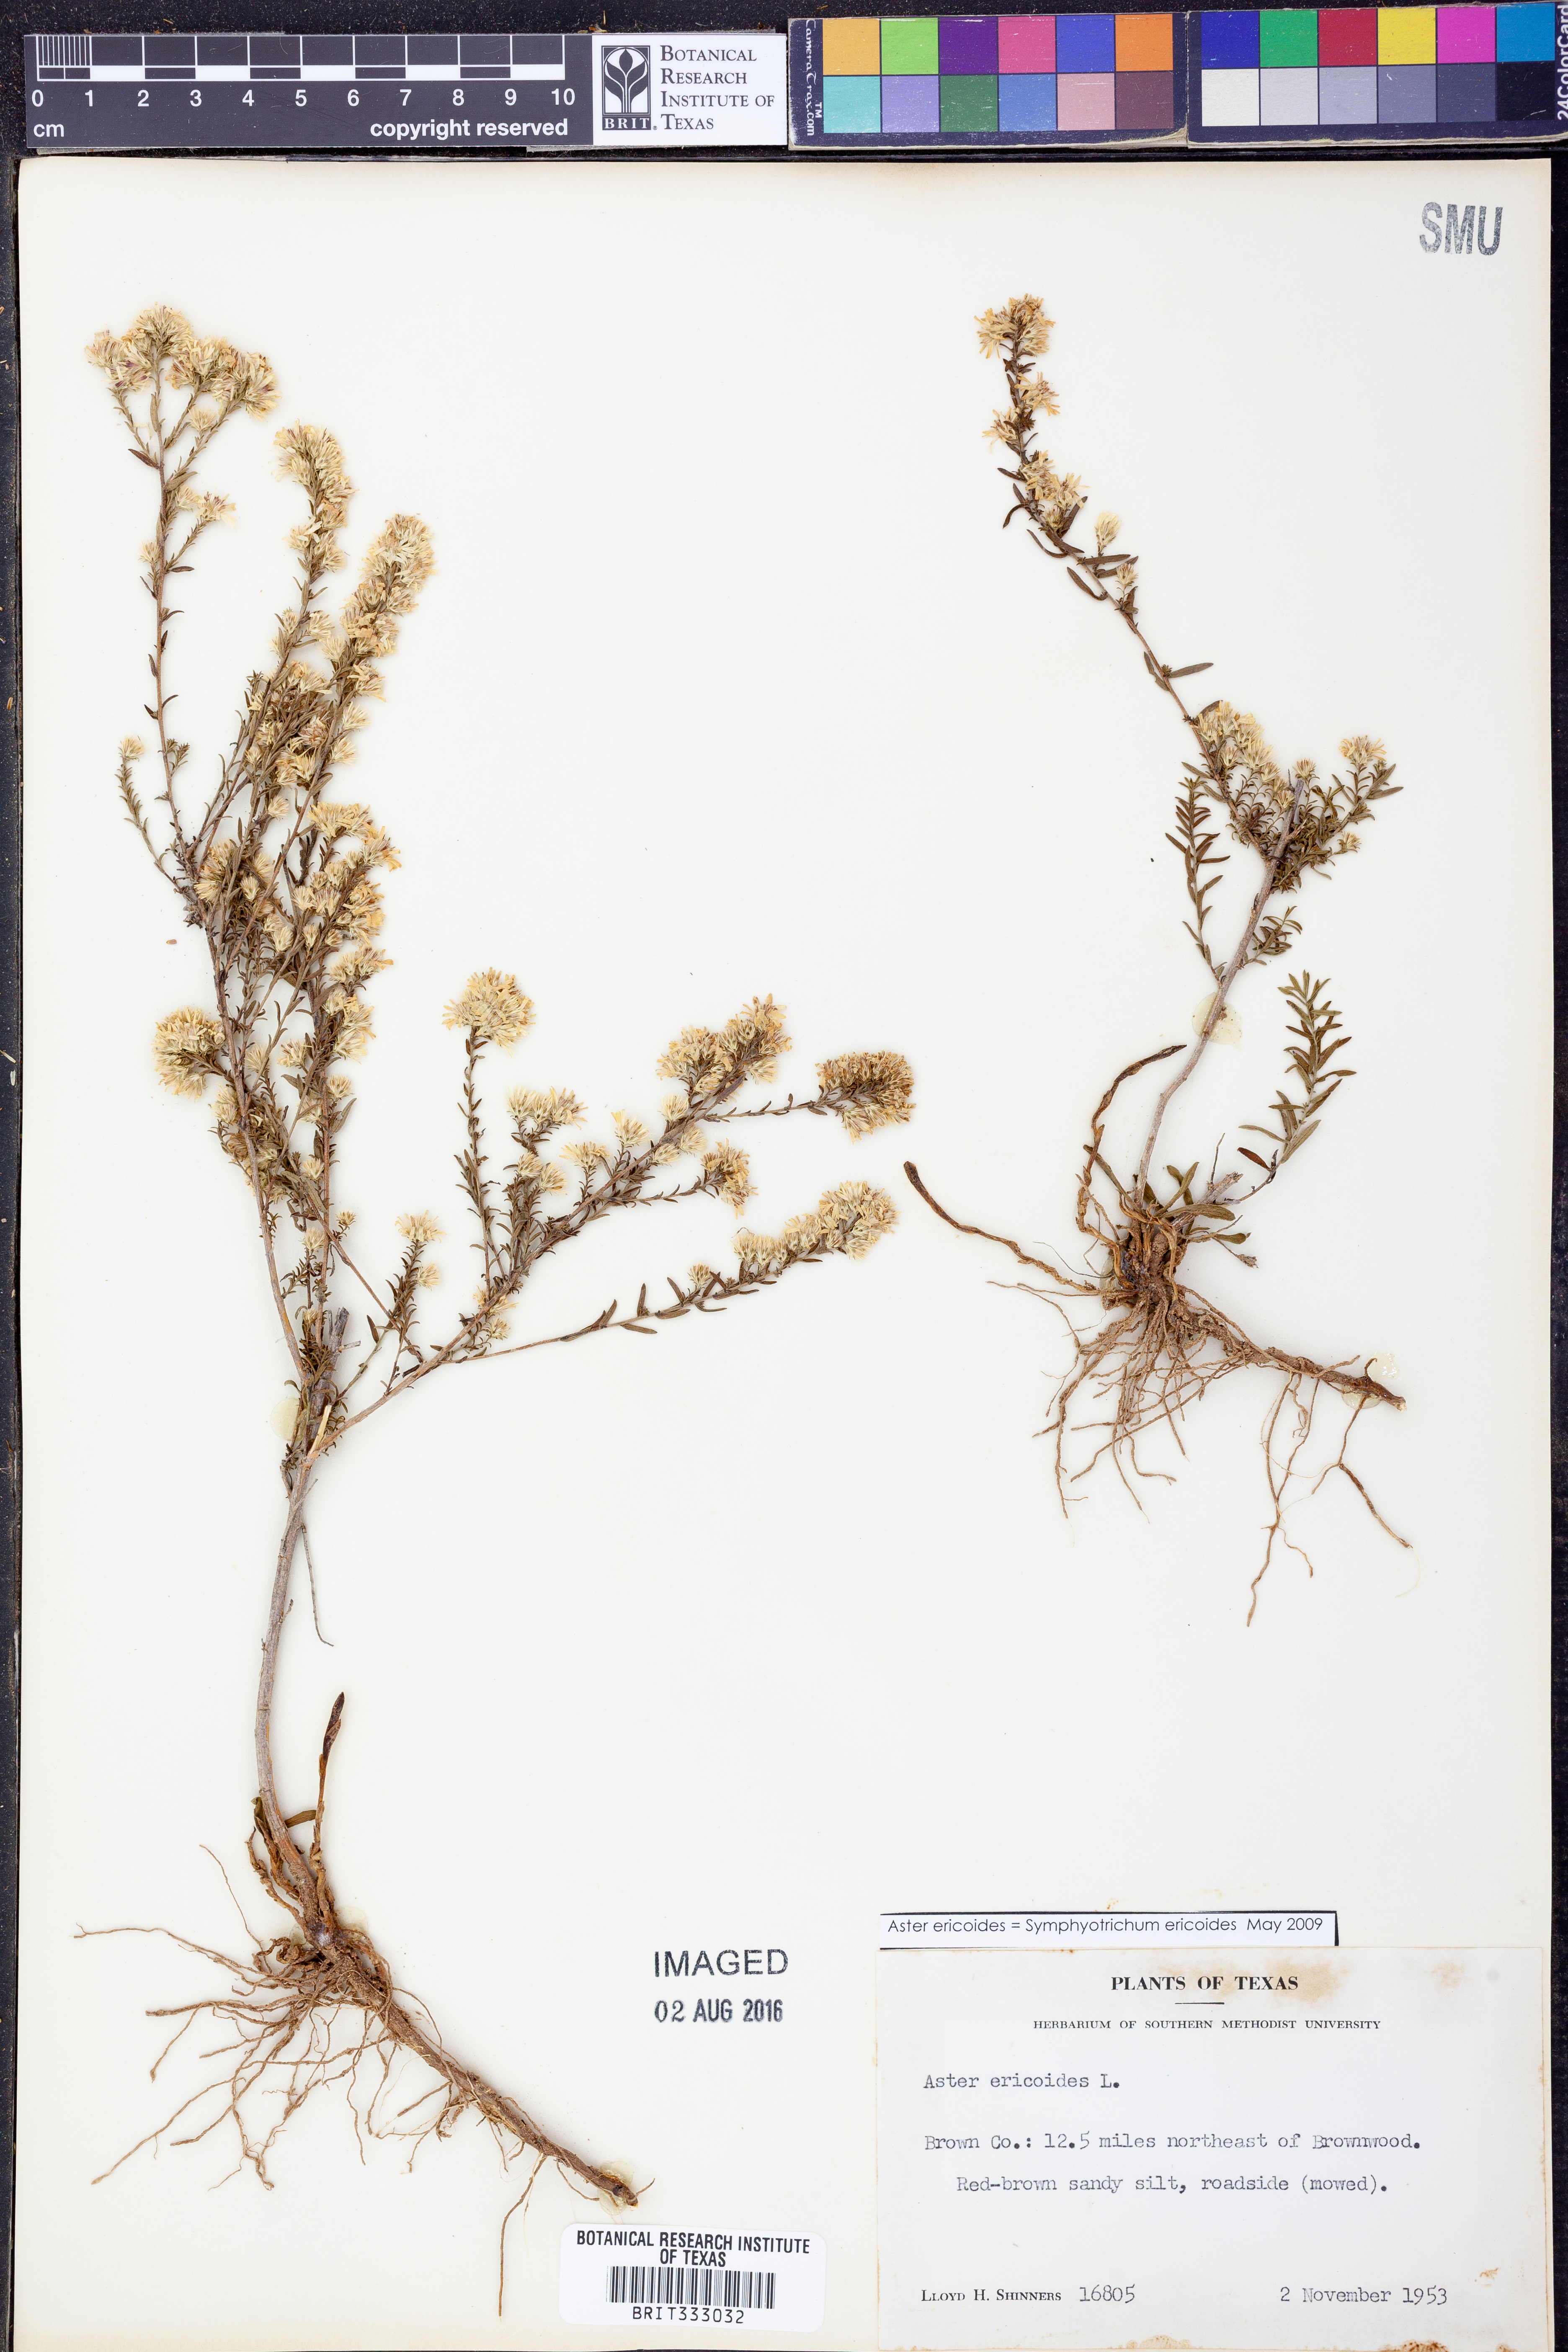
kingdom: Plantae
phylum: Tracheophyta
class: Magnoliopsida
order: Asterales
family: Asteraceae
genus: Symphyotrichum
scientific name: Symphyotrichum ericoides
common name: Heath aster
